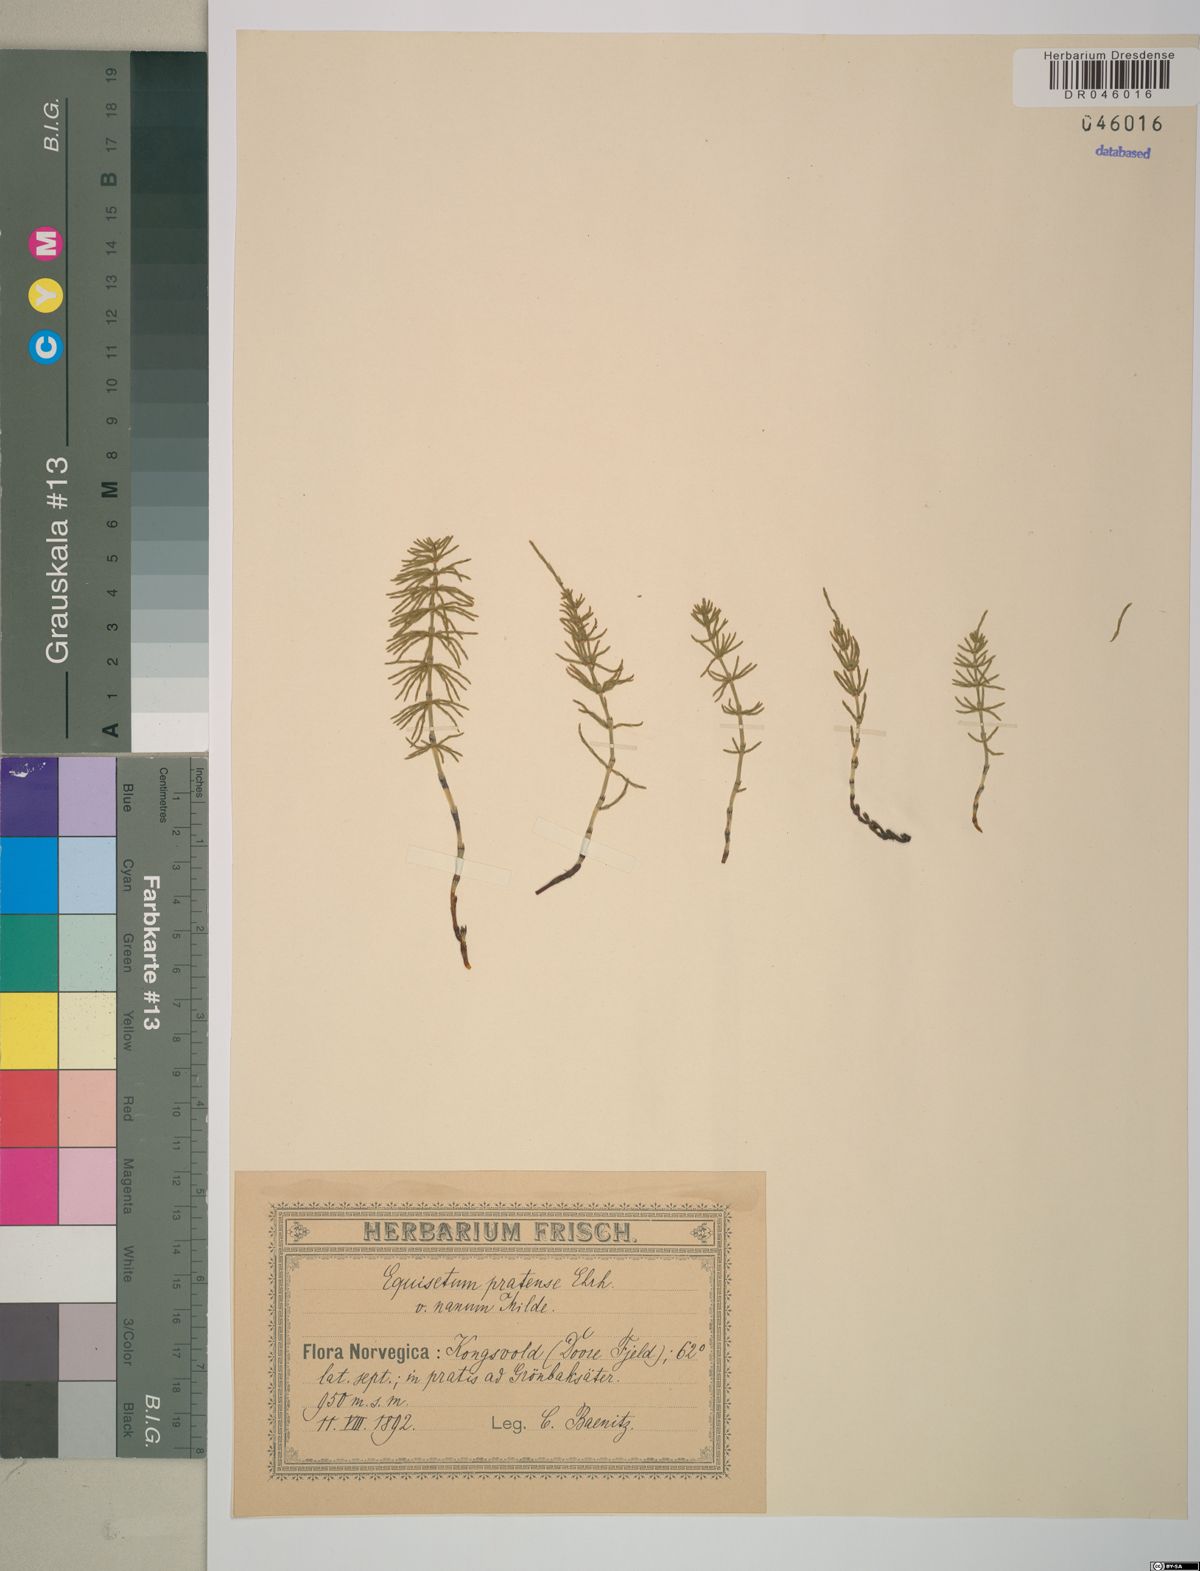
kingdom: Plantae
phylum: Tracheophyta
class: Polypodiopsida
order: Equisetales
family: Equisetaceae
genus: Equisetum
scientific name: Equisetum pratense
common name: Meadow horsetail
